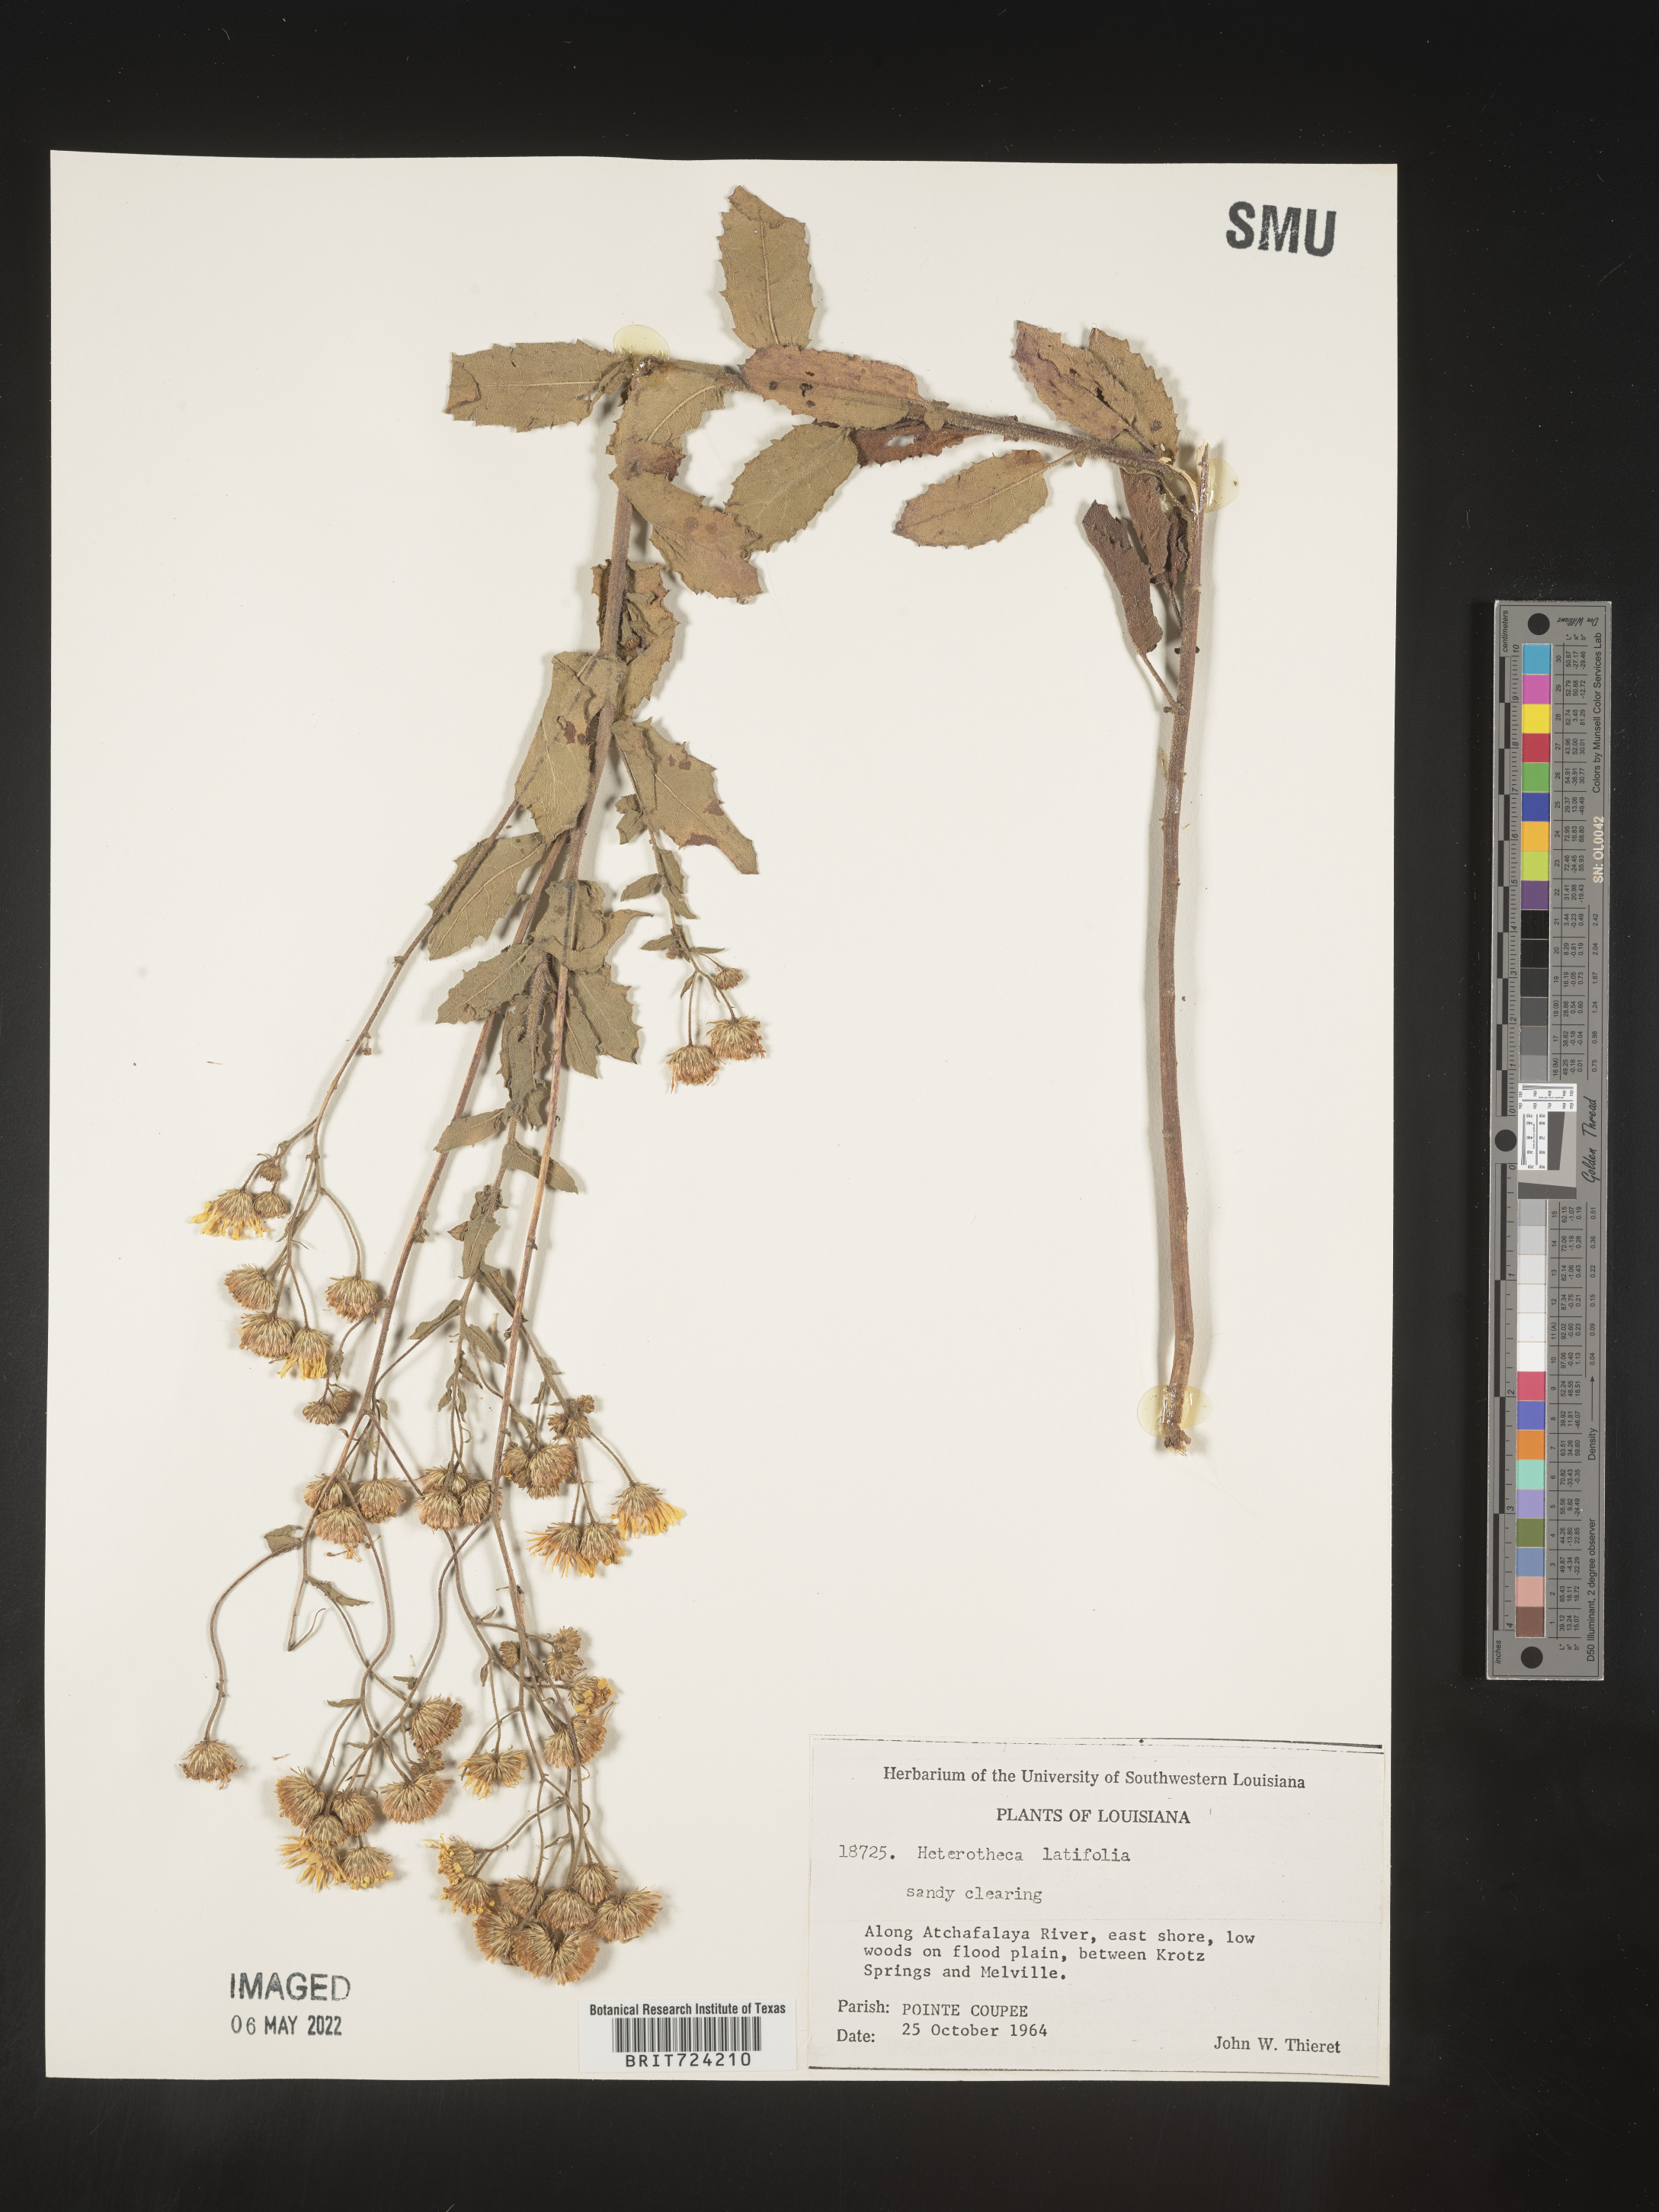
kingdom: Plantae
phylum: Tracheophyta
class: Magnoliopsida
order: Asterales
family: Asteraceae
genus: Heterotheca
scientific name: Heterotheca subaxillaris
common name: Camphorweed
